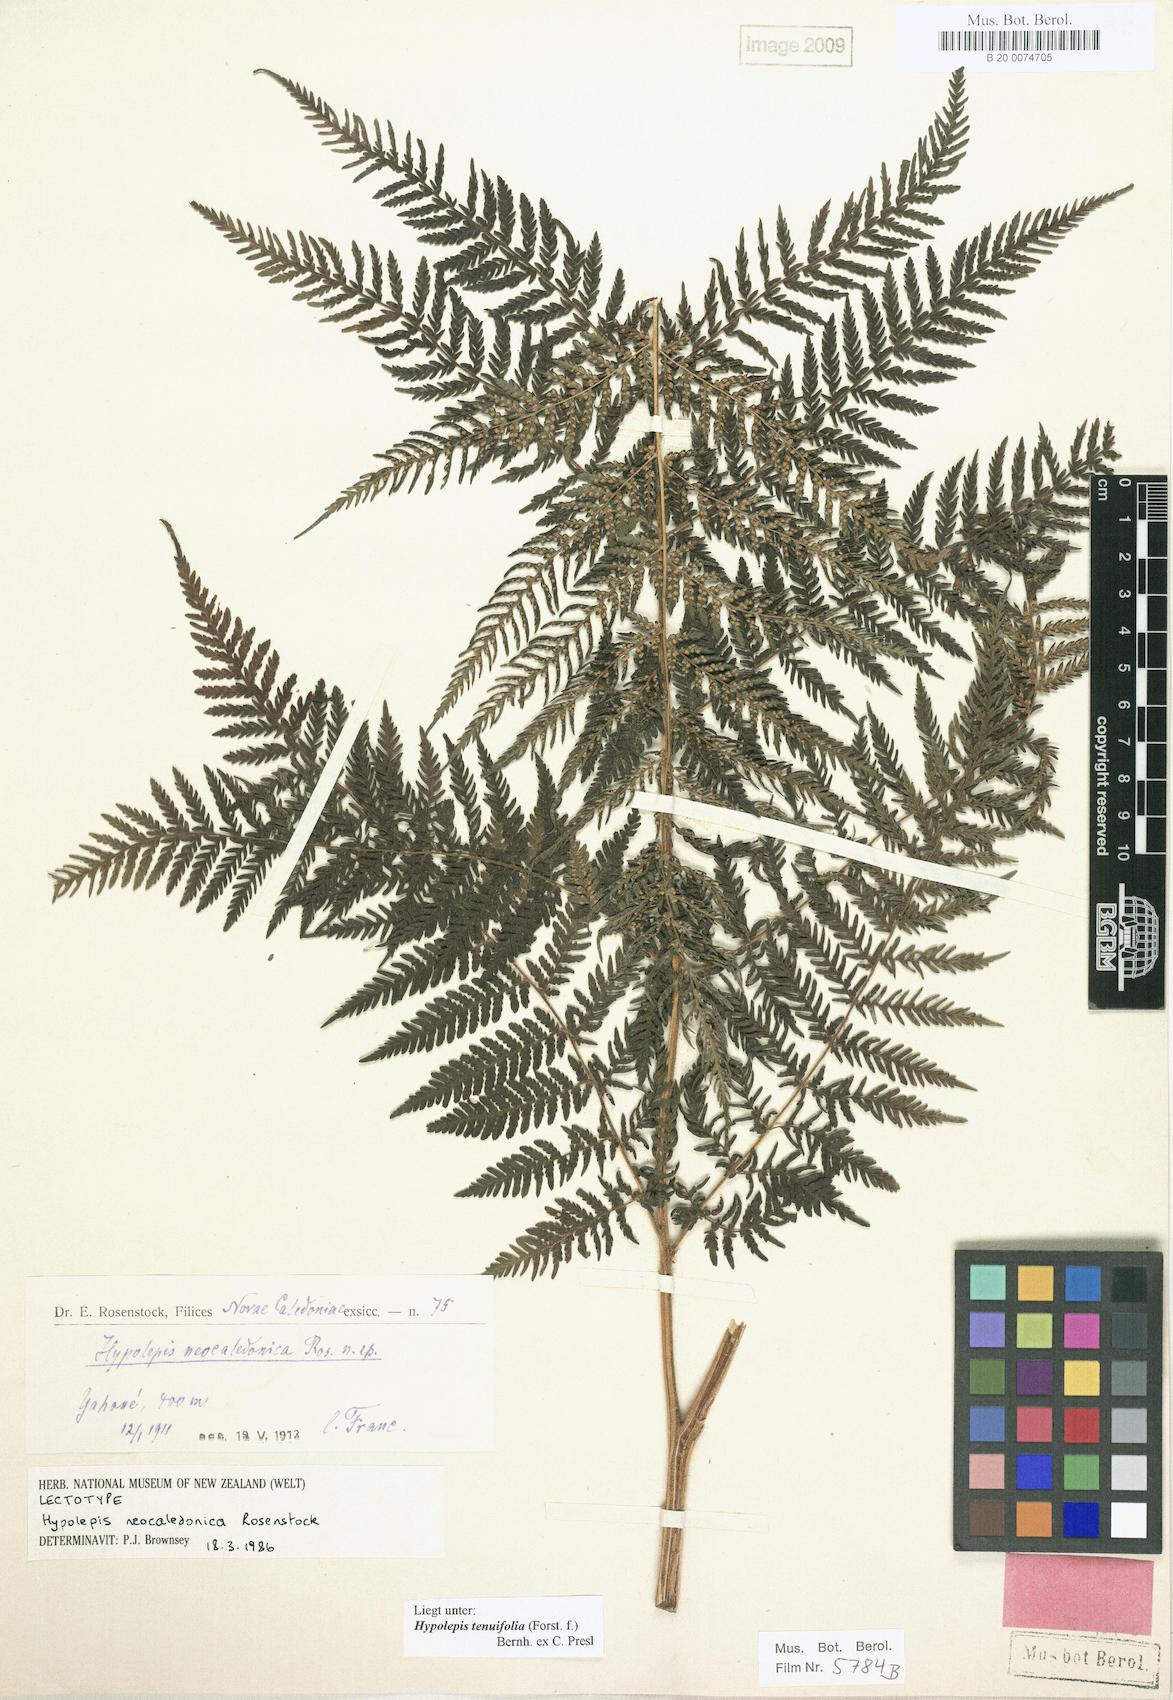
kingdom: Plantae
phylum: Tracheophyta
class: Polypodiopsida
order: Polypodiales
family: Dennstaedtiaceae
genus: Hypolepis
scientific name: Hypolepis tenuifolia
